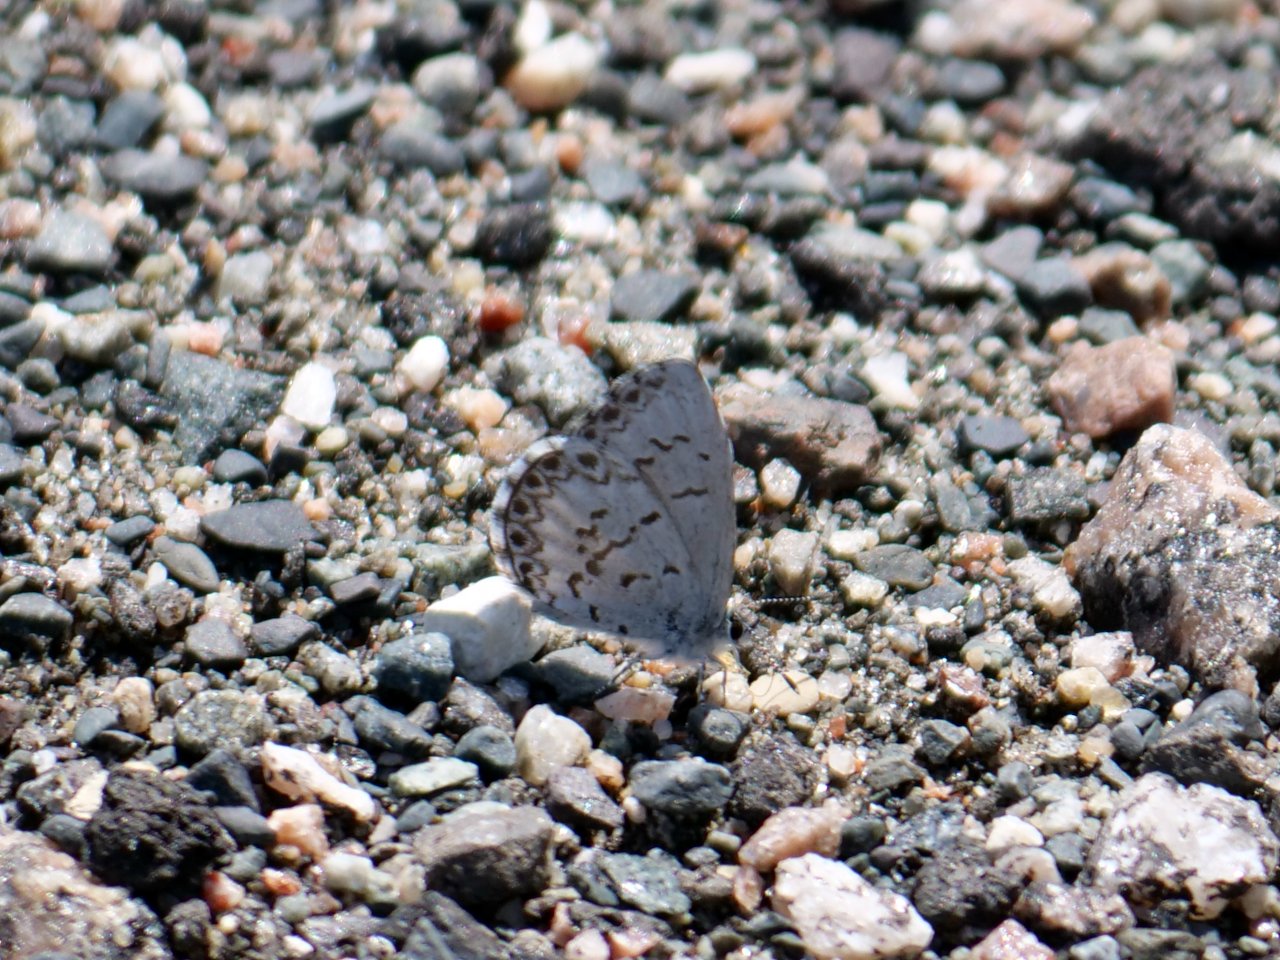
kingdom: Animalia
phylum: Arthropoda
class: Insecta
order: Lepidoptera
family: Lycaenidae
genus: Celastrina
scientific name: Celastrina lucia
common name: Northern Spring Azure
